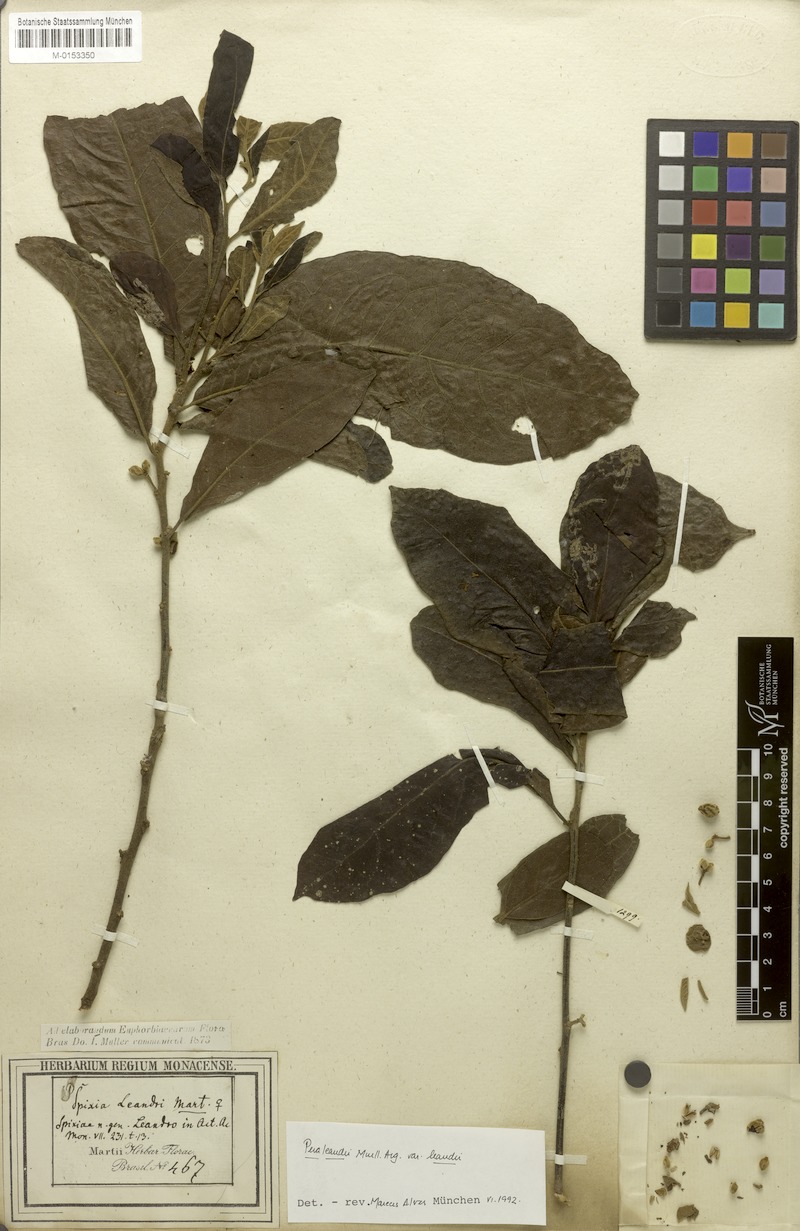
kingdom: Plantae
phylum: Tracheophyta
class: Magnoliopsida
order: Malpighiales
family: Peraceae
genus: Pera
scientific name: Pera heteranthera
